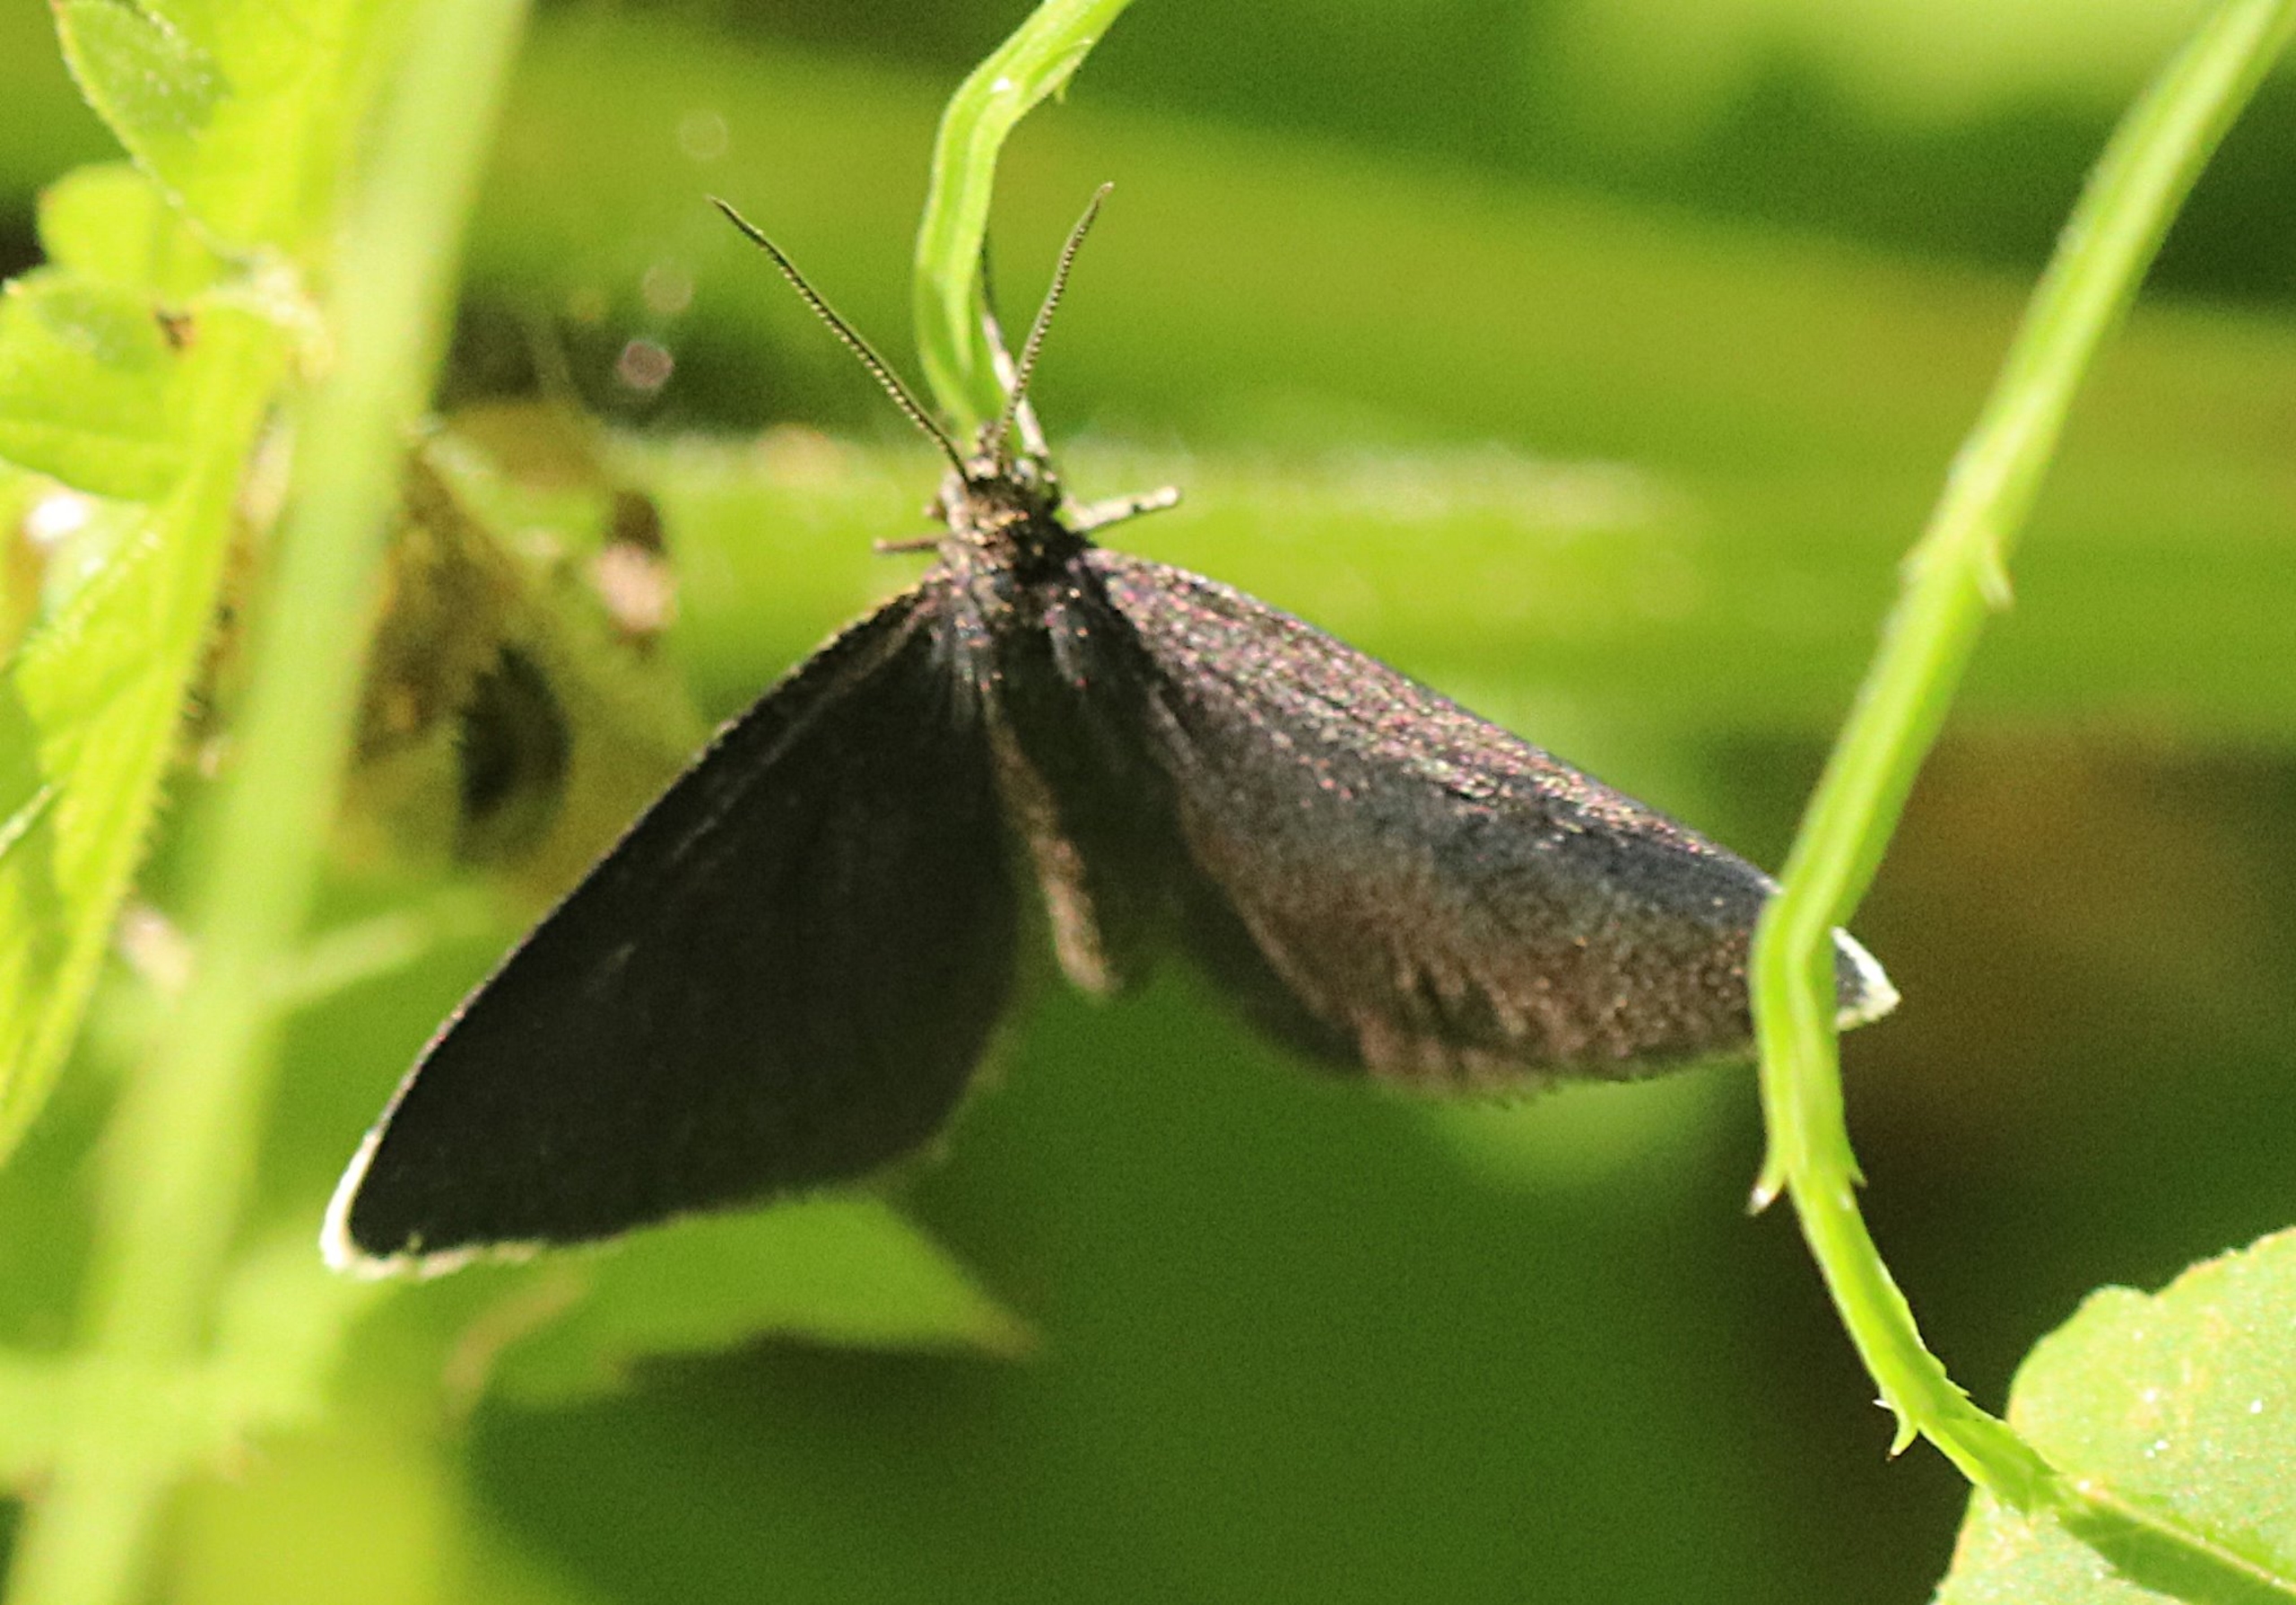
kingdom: Animalia
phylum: Arthropoda
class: Insecta
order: Lepidoptera
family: Geometridae
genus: Odezia
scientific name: Odezia atrata
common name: Sort måler
